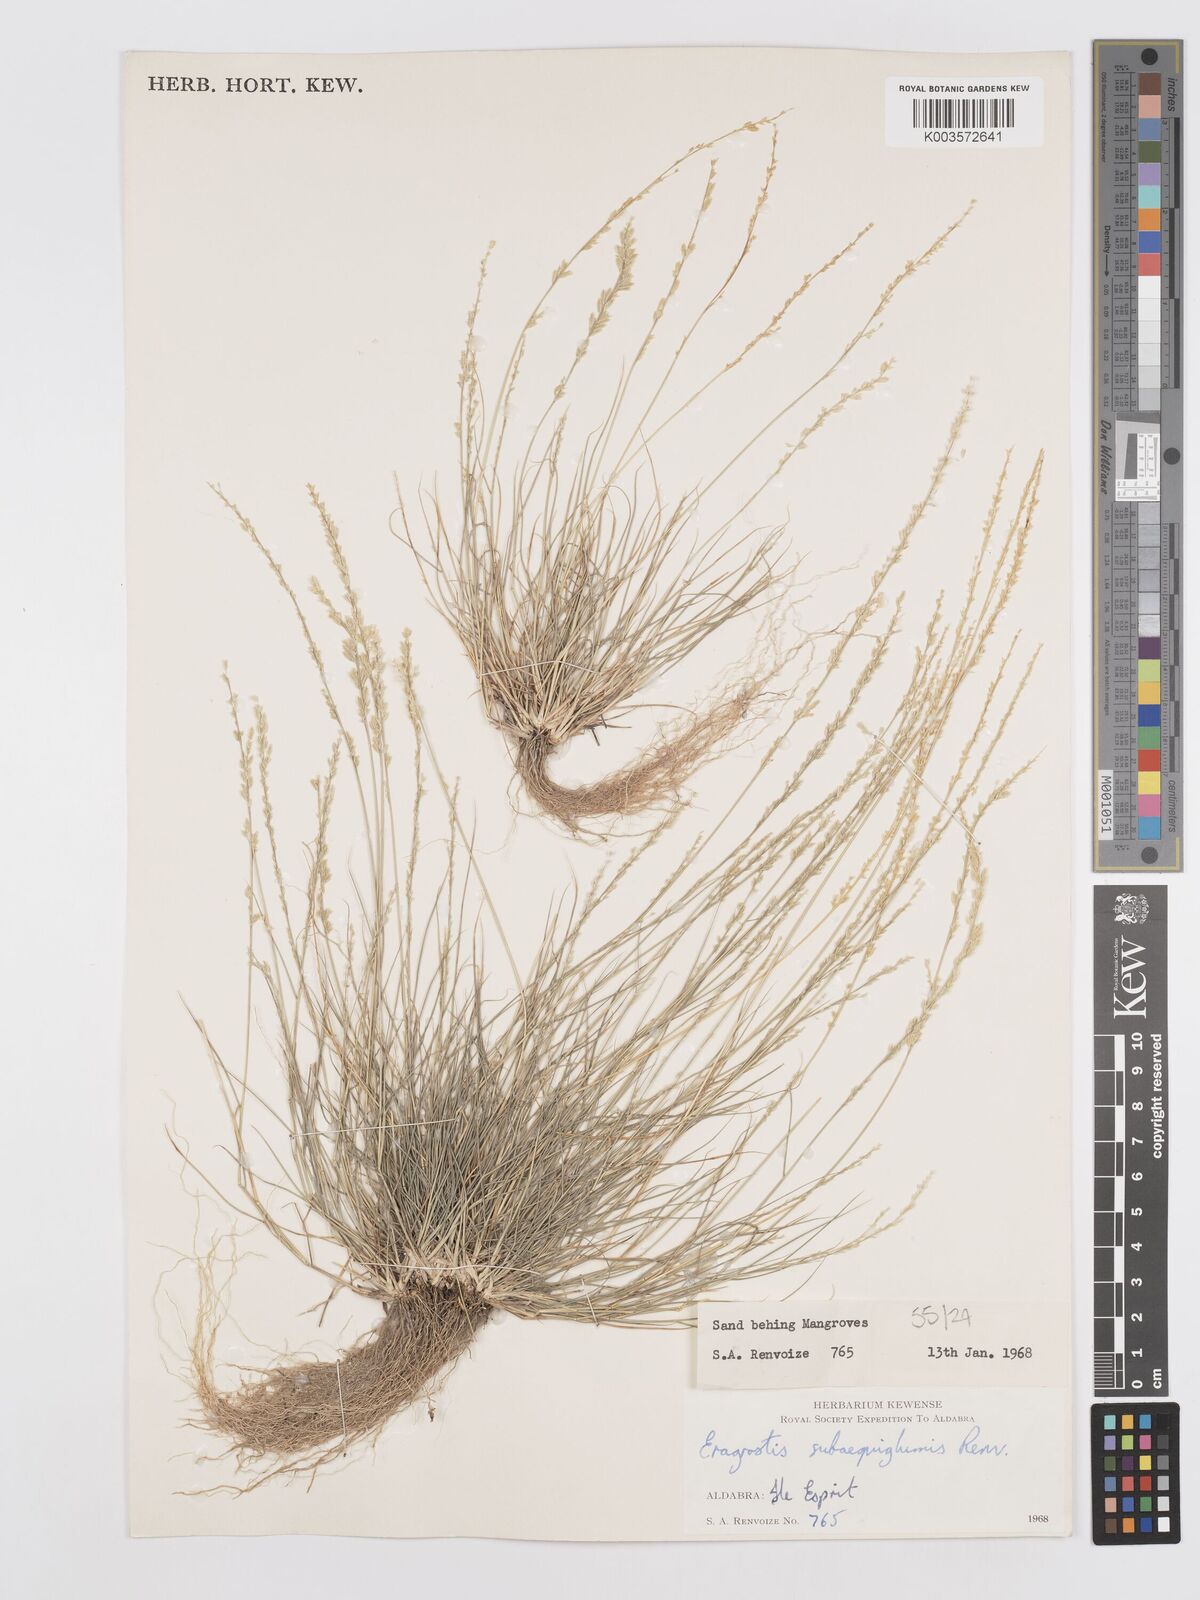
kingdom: Plantae
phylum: Tracheophyta
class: Liliopsida
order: Poales
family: Poaceae
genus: Eragrostis
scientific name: Eragrostis subaequiglumis
